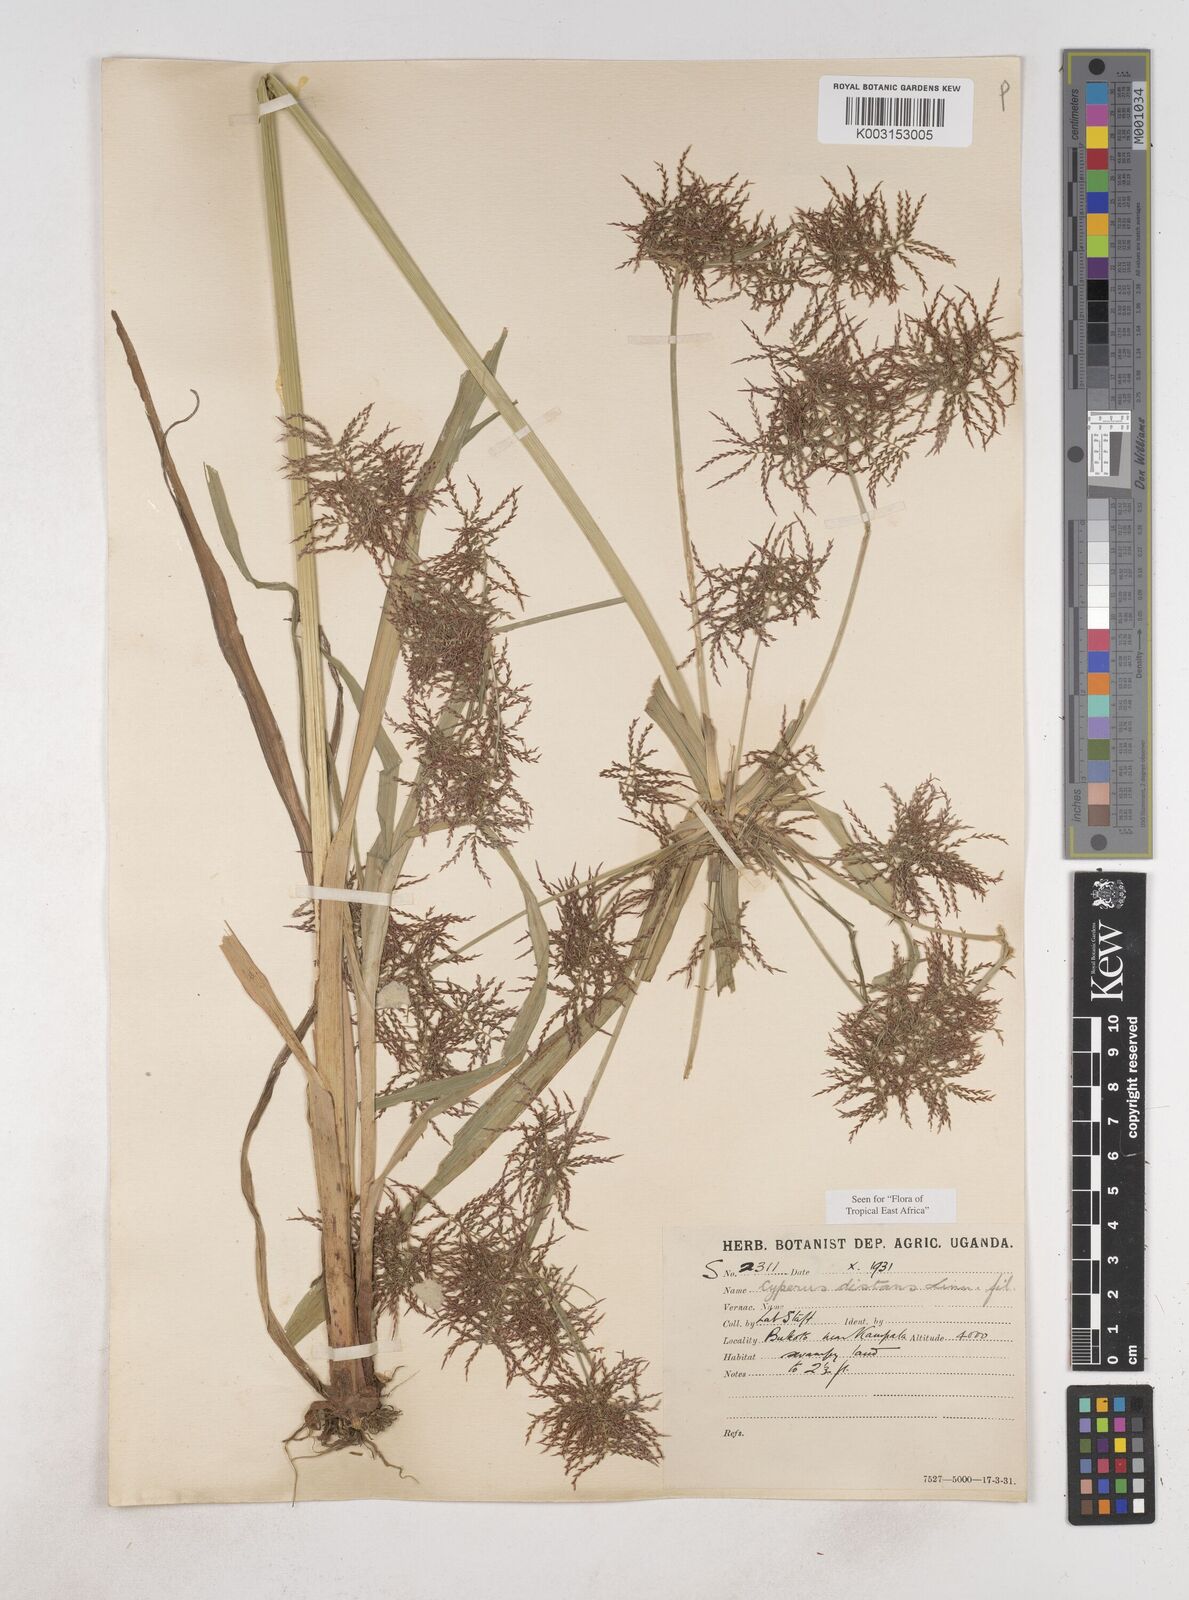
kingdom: Plantae
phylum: Tracheophyta
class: Liliopsida
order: Poales
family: Cyperaceae
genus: Cyperus
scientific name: Cyperus distans
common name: Slender cyperus
